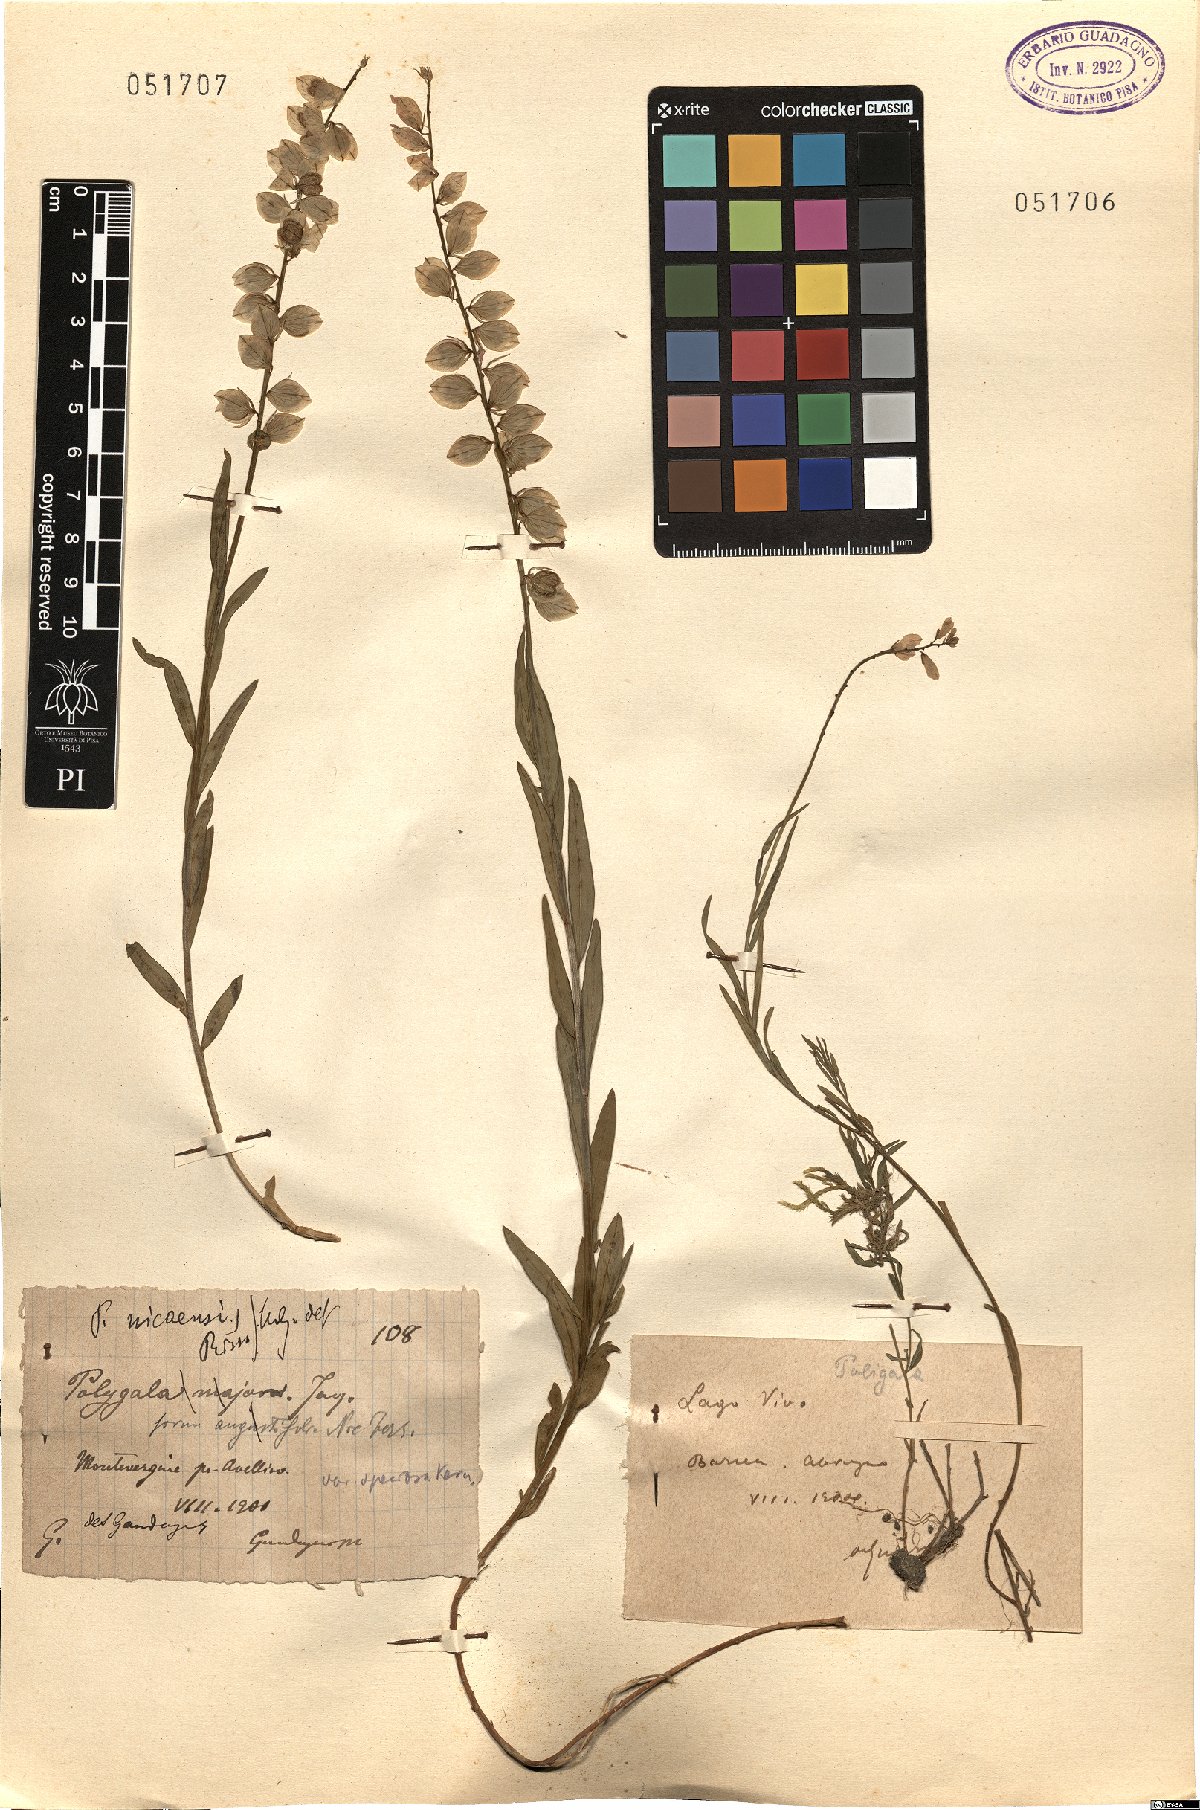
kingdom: Plantae
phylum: Tracheophyta
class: Magnoliopsida
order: Fabales
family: Polygalaceae
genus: Polygala
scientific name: Polygala forojulensis
